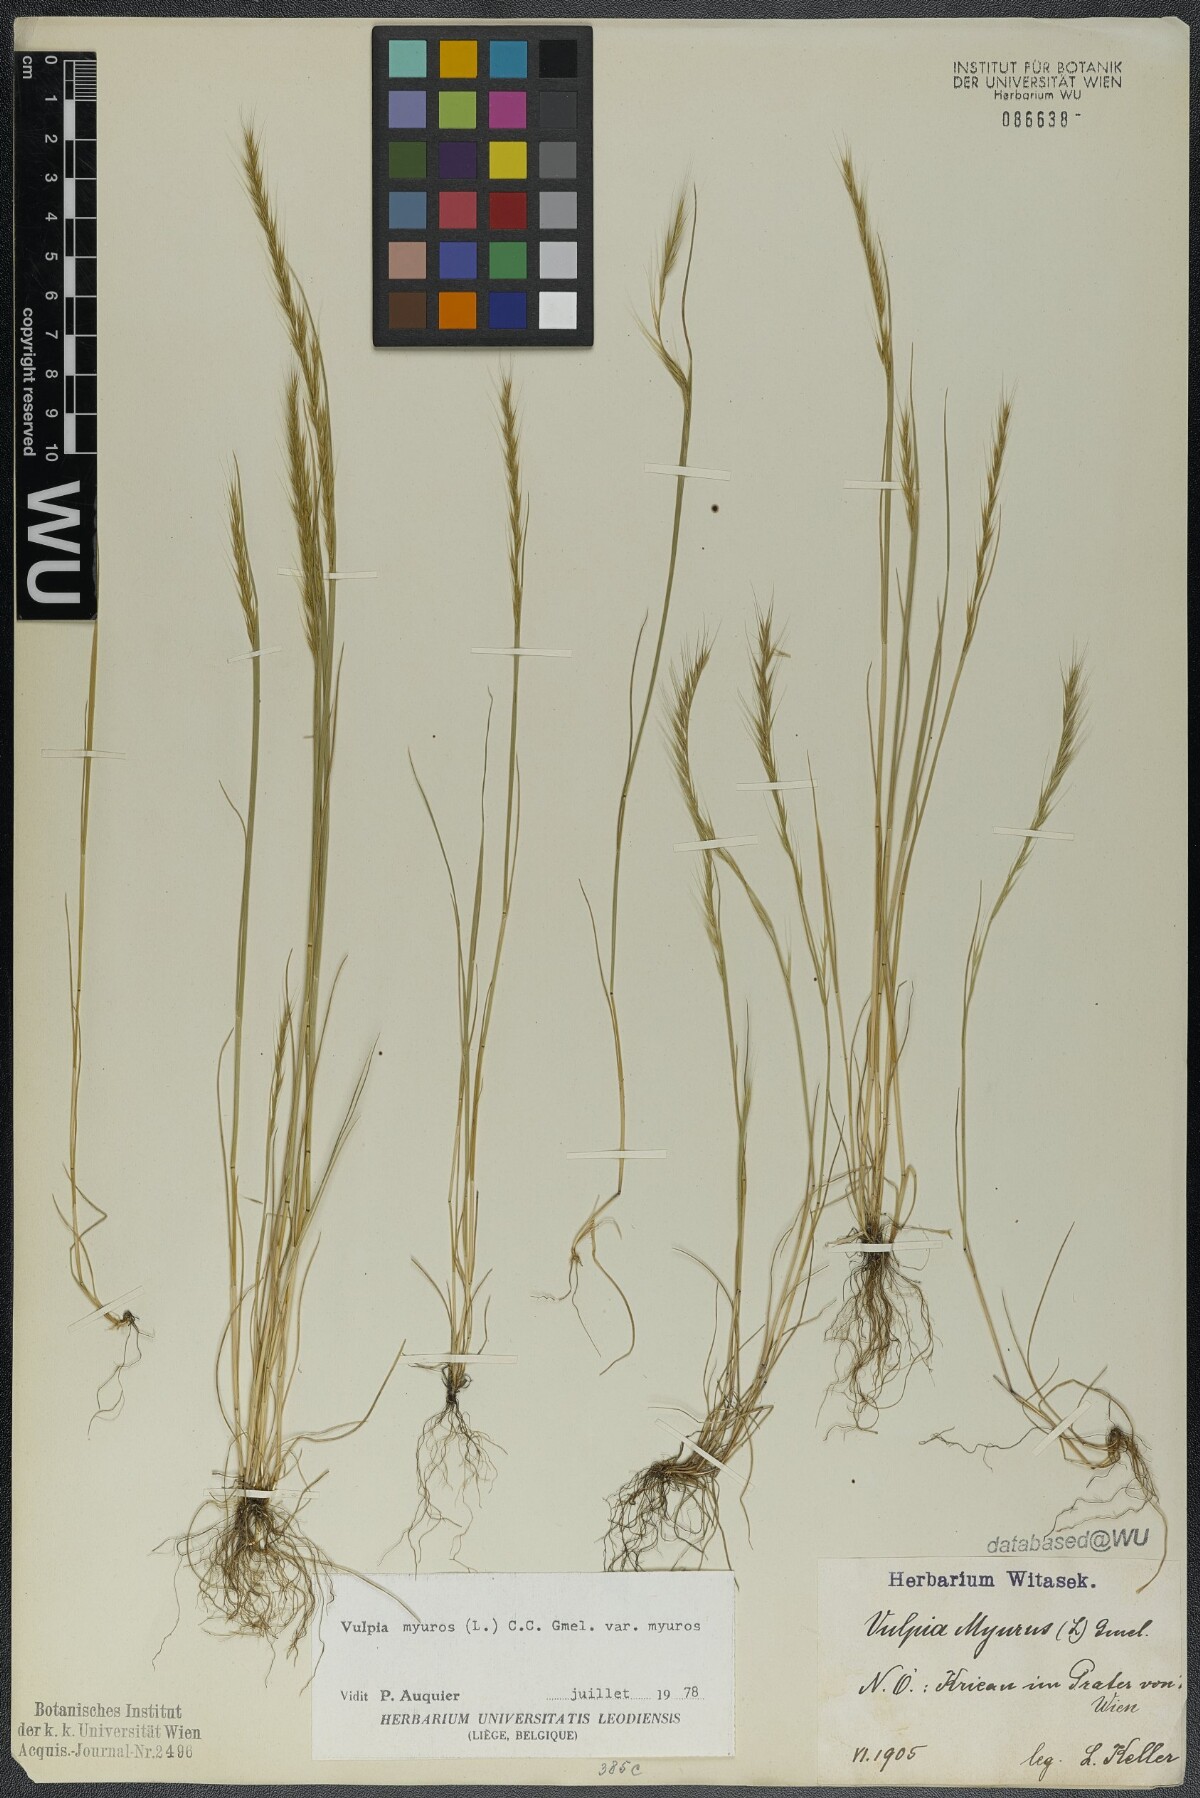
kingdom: Plantae
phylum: Tracheophyta
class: Liliopsida
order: Poales
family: Poaceae
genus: Festuca
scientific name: Festuca myuros
